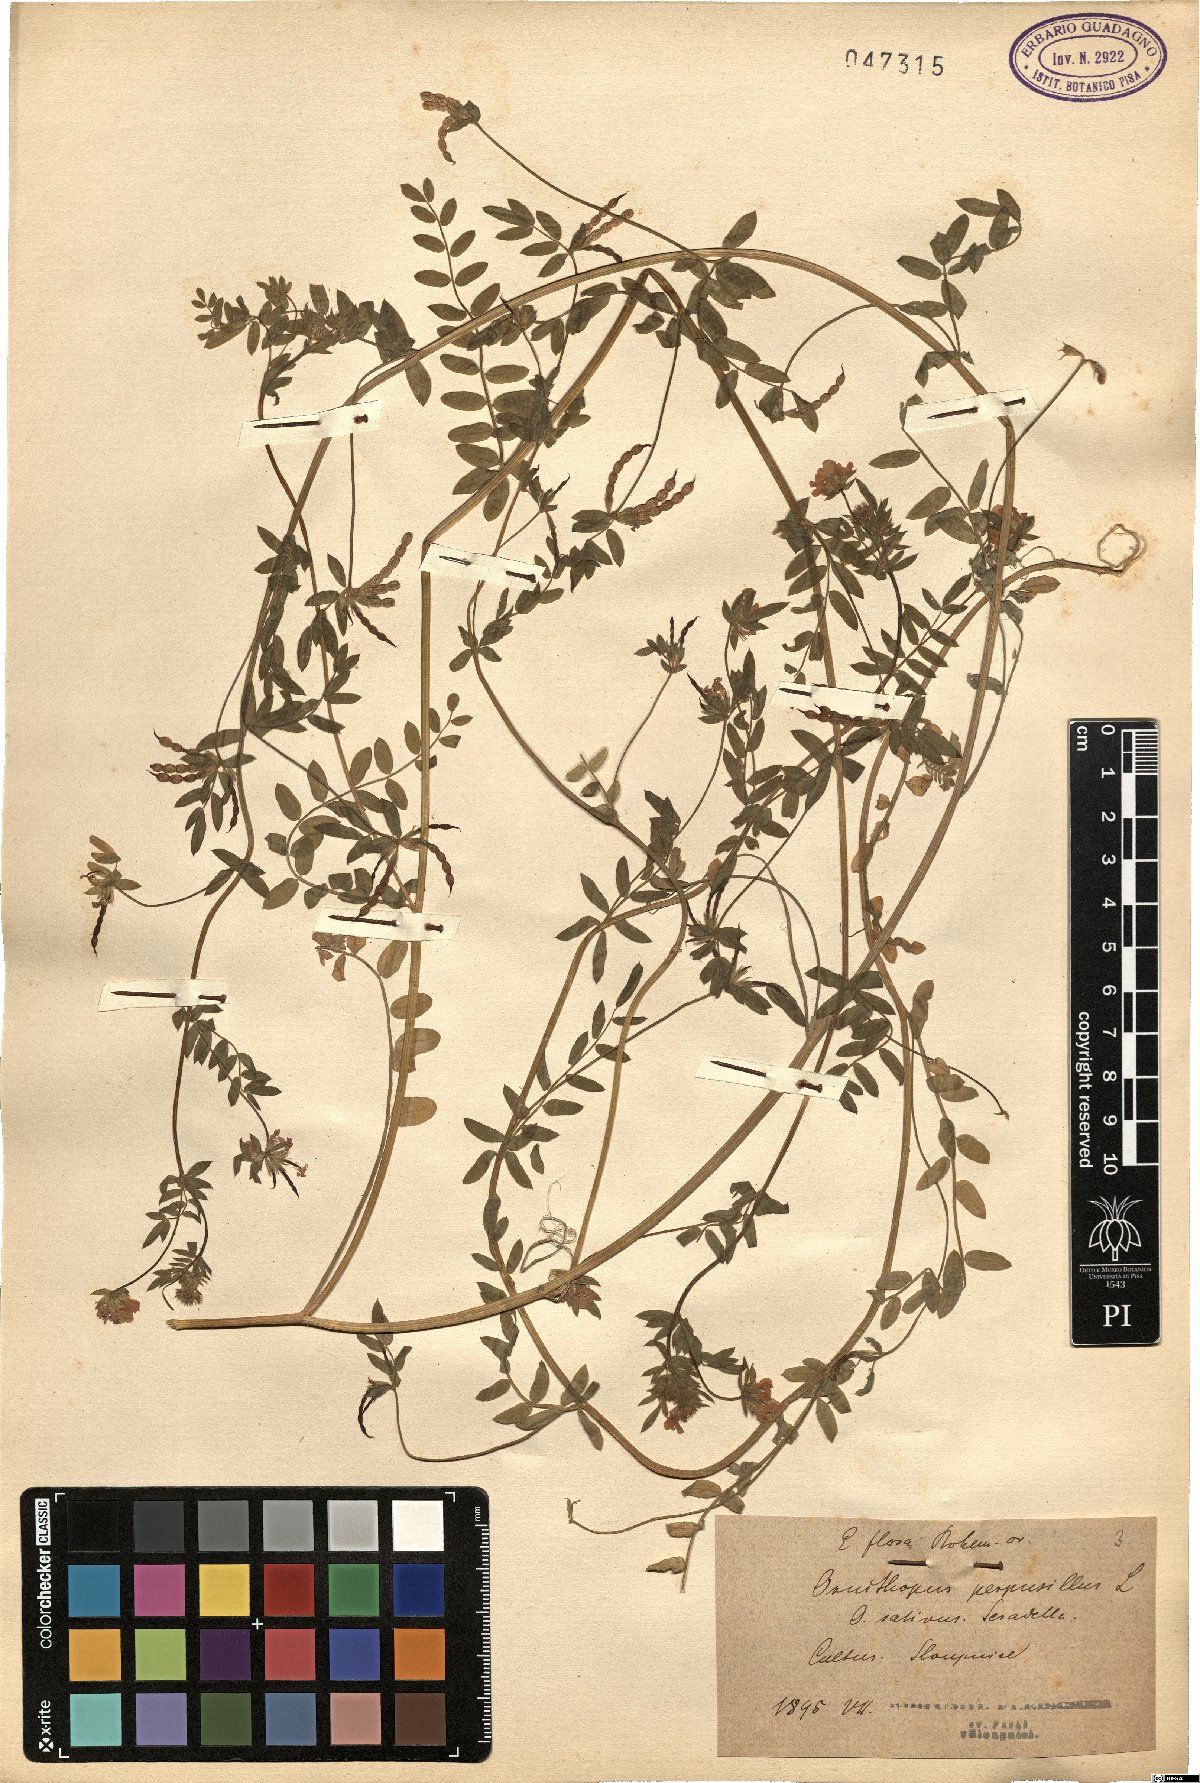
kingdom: Plantae
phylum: Tracheophyta
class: Magnoliopsida
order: Fabales
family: Fabaceae
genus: Ornithopus
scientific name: Ornithopus perpusillus
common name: Bird's-foot
